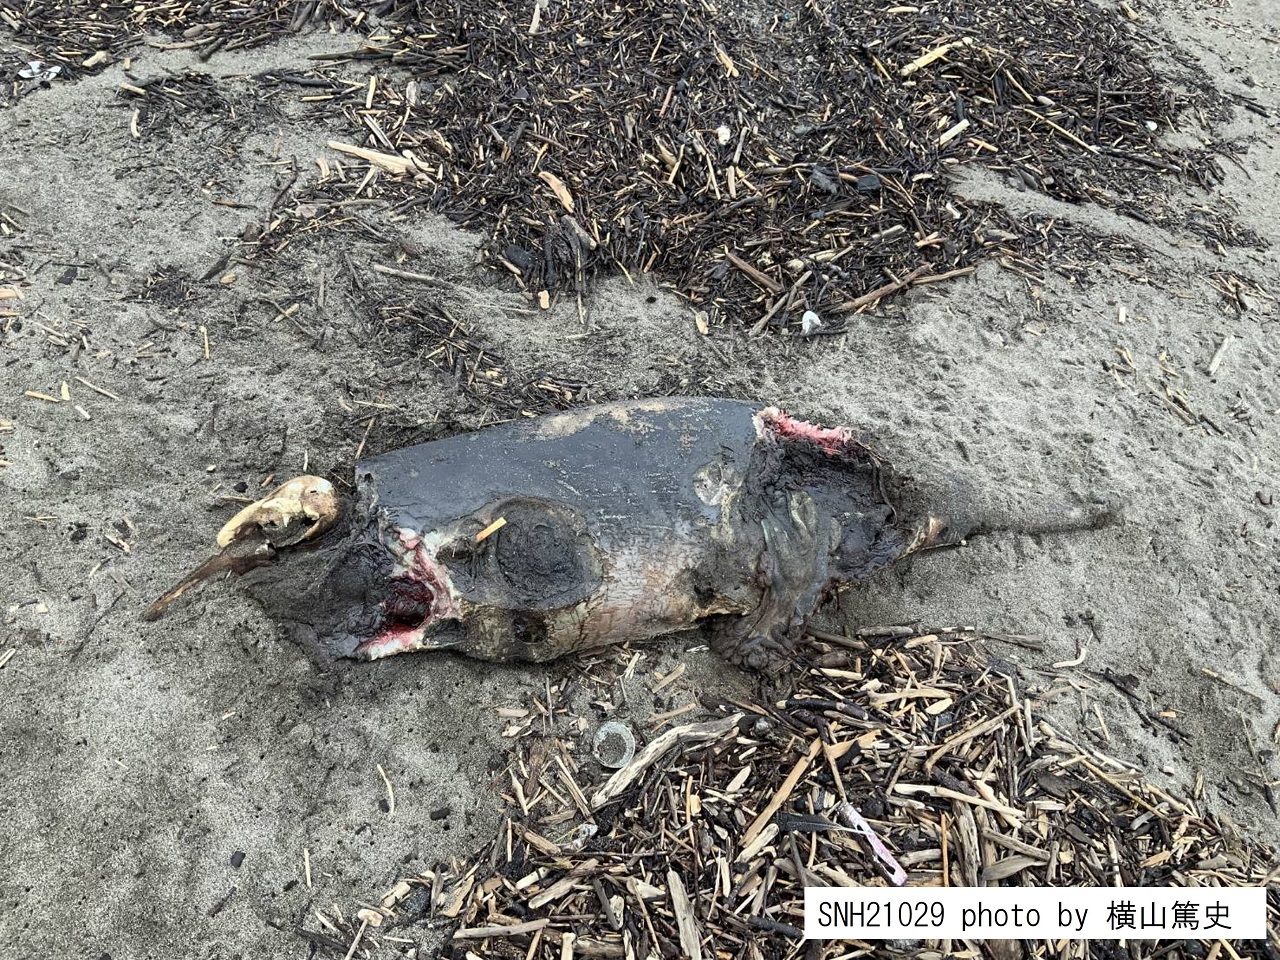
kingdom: Animalia
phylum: Chordata
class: Mammalia
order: Cetacea
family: Phocoenidae
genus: Phocoena
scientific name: Phocoena phocoena
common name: Harbour porpoise
